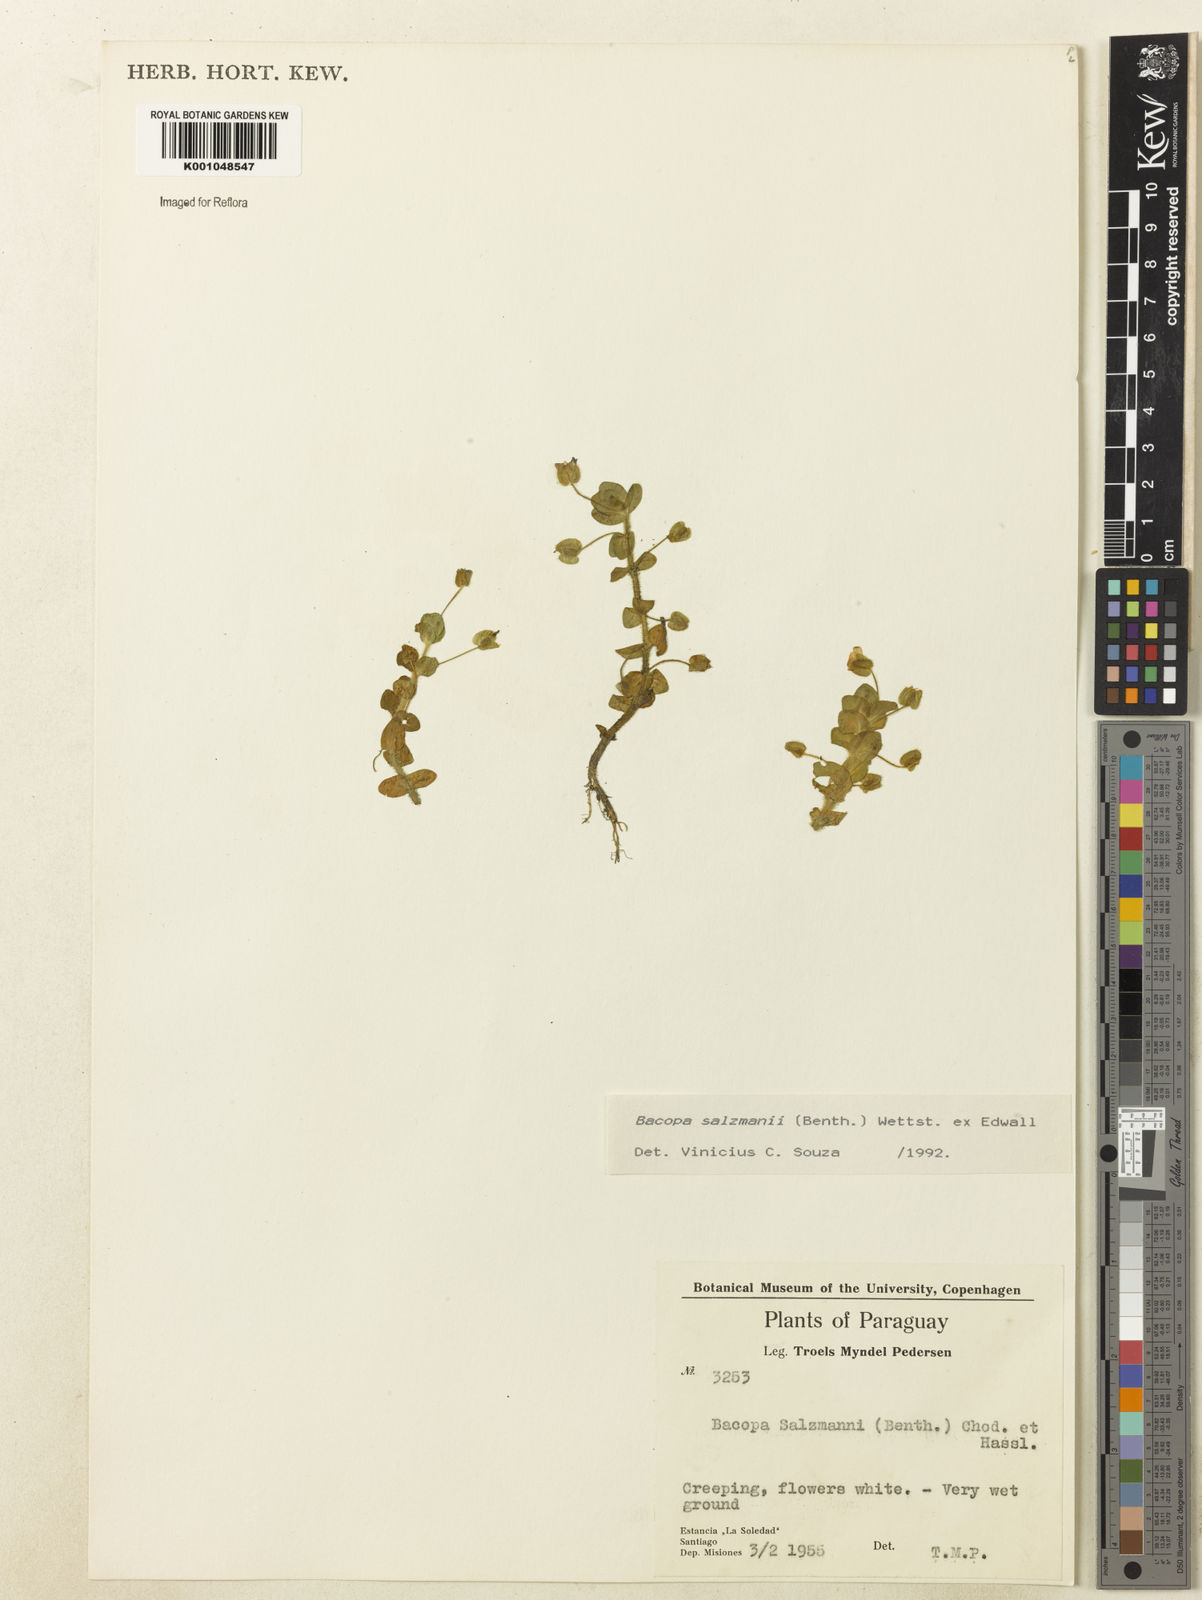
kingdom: Plantae
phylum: Tracheophyta
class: Magnoliopsida
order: Lamiales
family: Plantaginaceae
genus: Bacopa
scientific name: Bacopa salzmannii
